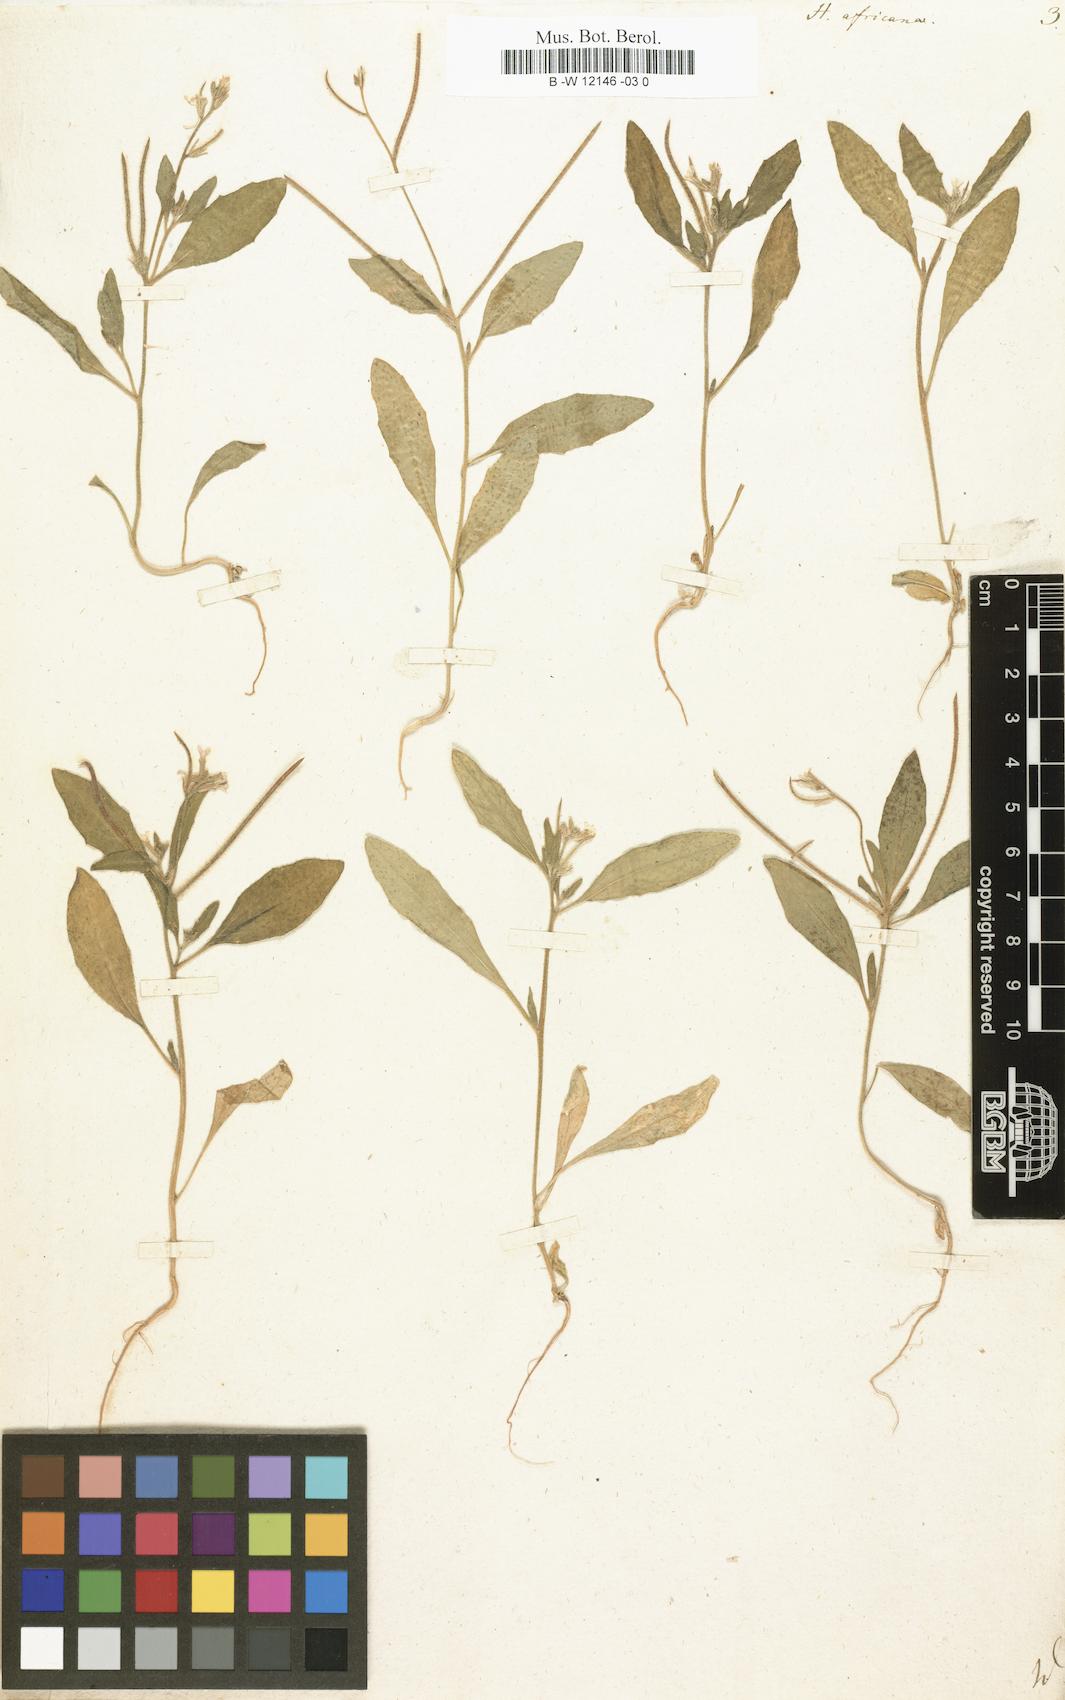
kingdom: Plantae
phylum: Tracheophyta
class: Magnoliopsida
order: Brassicales
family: Brassicaceae
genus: Strigosella
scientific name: Strigosella africana
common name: African mustard
